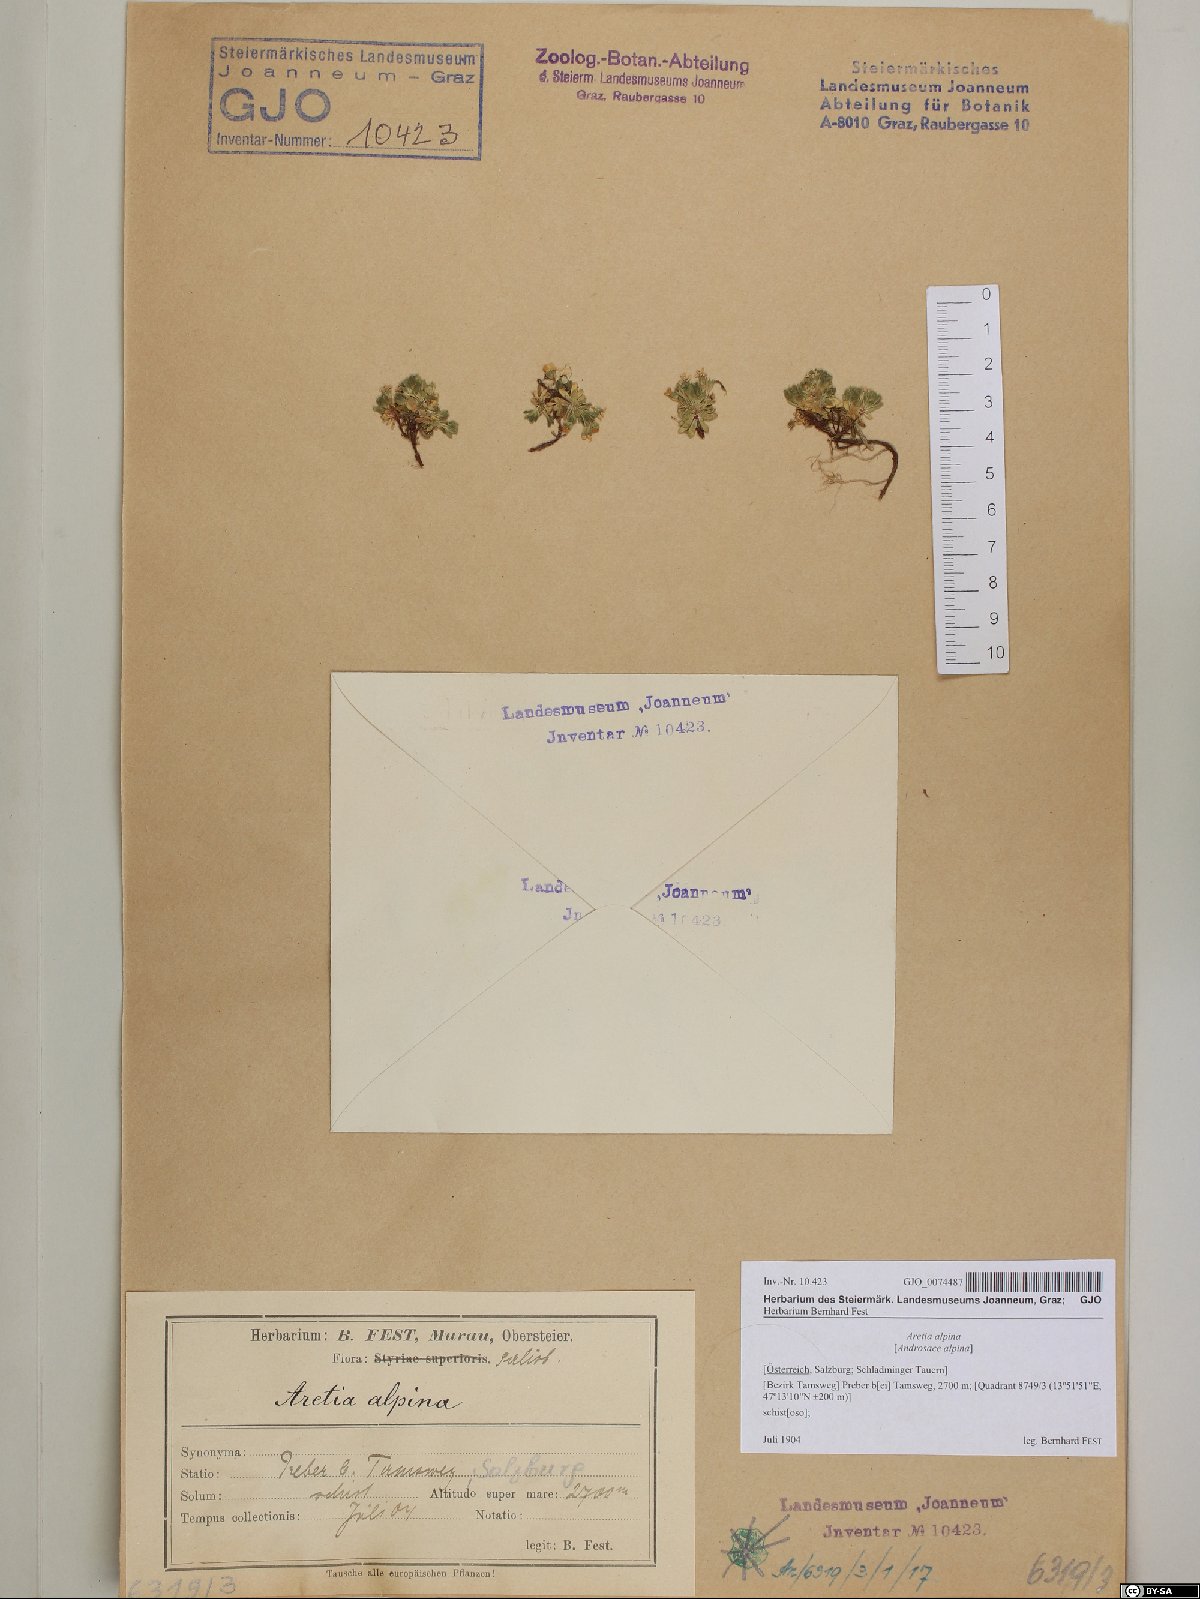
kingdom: Plantae
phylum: Tracheophyta
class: Magnoliopsida
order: Ericales
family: Primulaceae
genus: Androsace
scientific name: Androsace alpina
